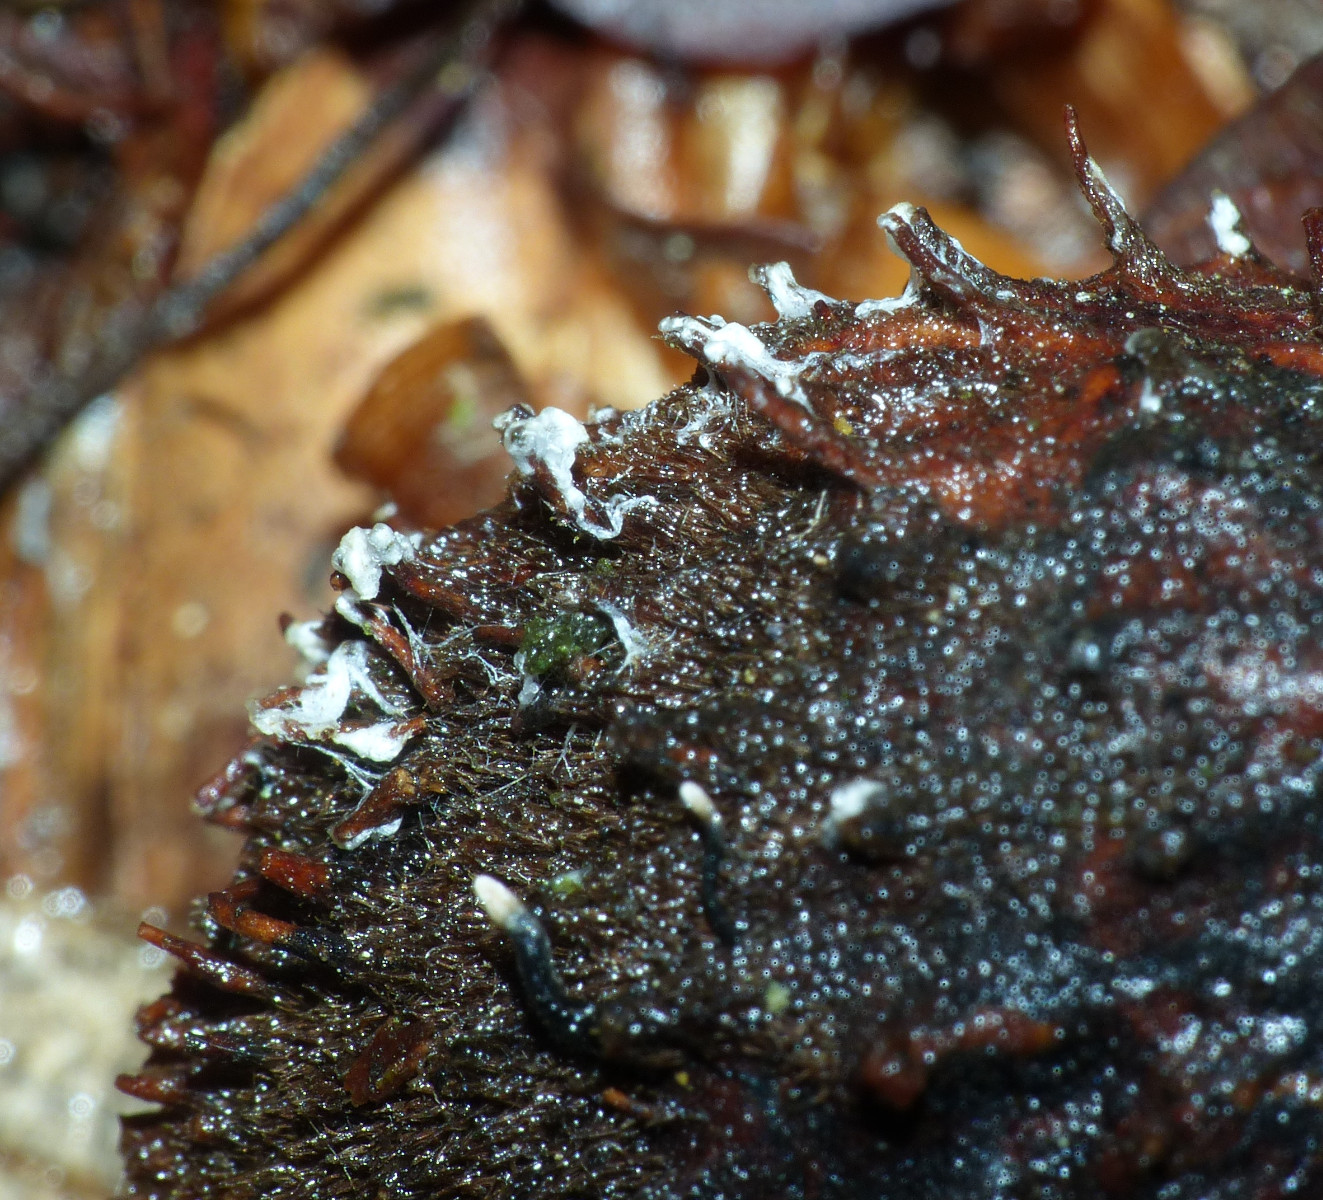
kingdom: Fungi
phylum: Ascomycota
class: Sordariomycetes
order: Xylariales
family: Xylariaceae
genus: Xylaria
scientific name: Xylaria carpophila
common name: bogskål-stødsvamp
